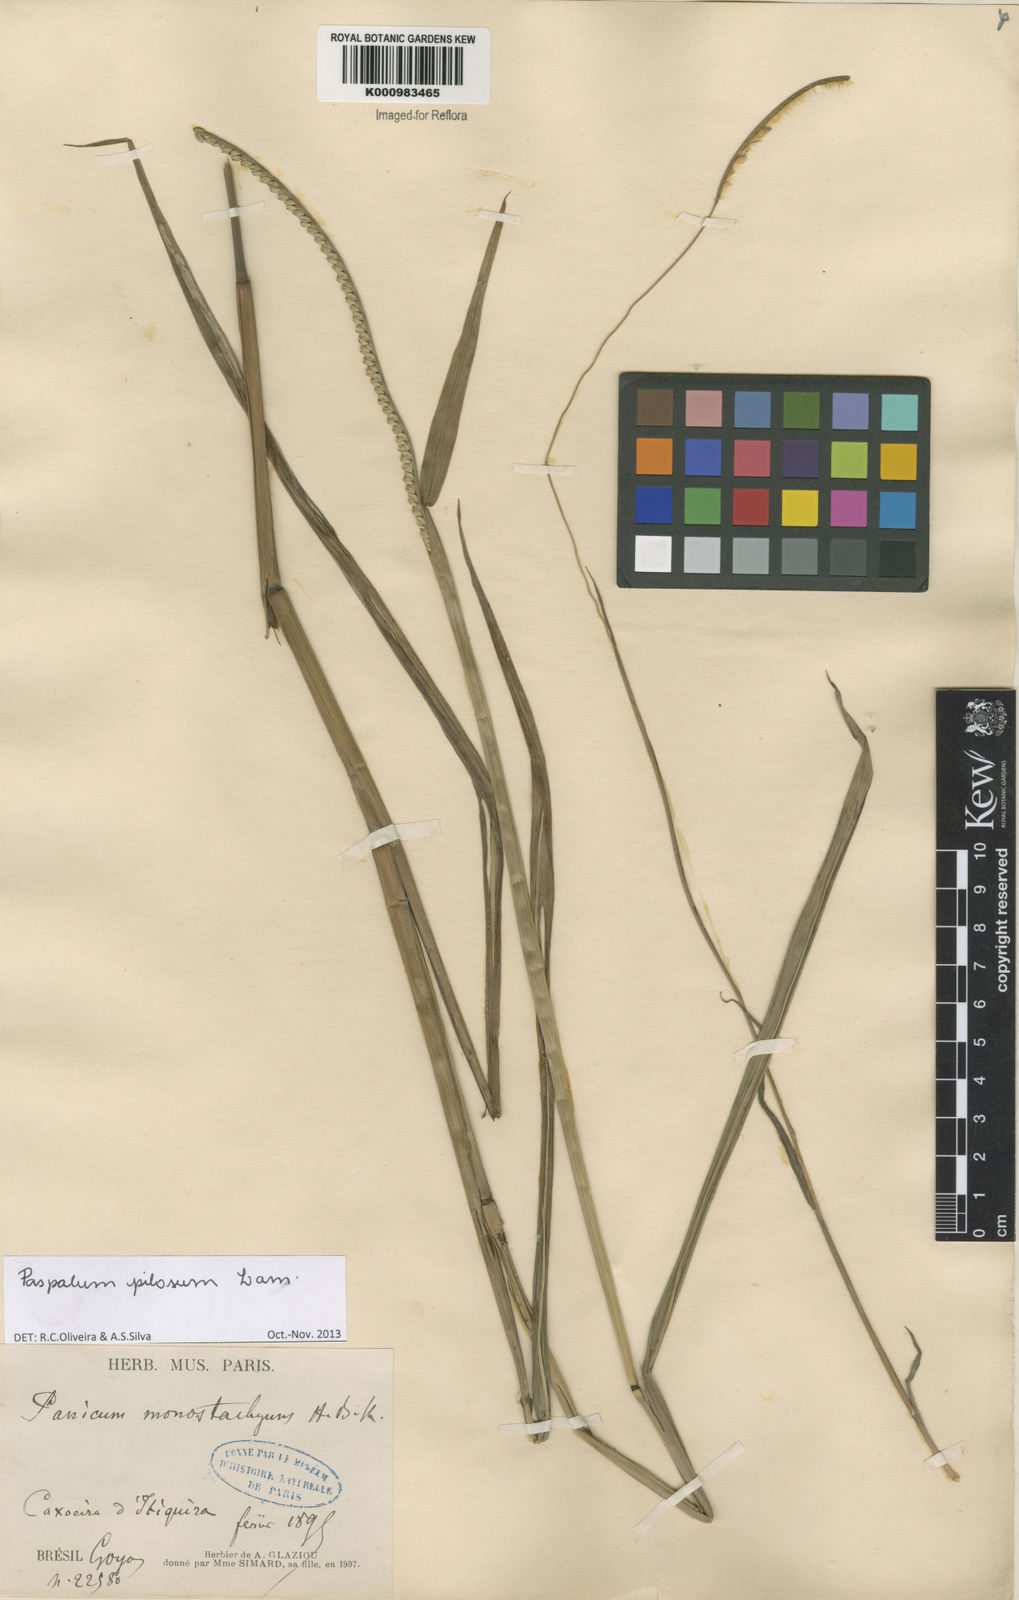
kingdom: Plantae
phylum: Tracheophyta
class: Liliopsida
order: Poales
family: Poaceae
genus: Paspalum
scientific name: Paspalum pilosum
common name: Crowngrass
